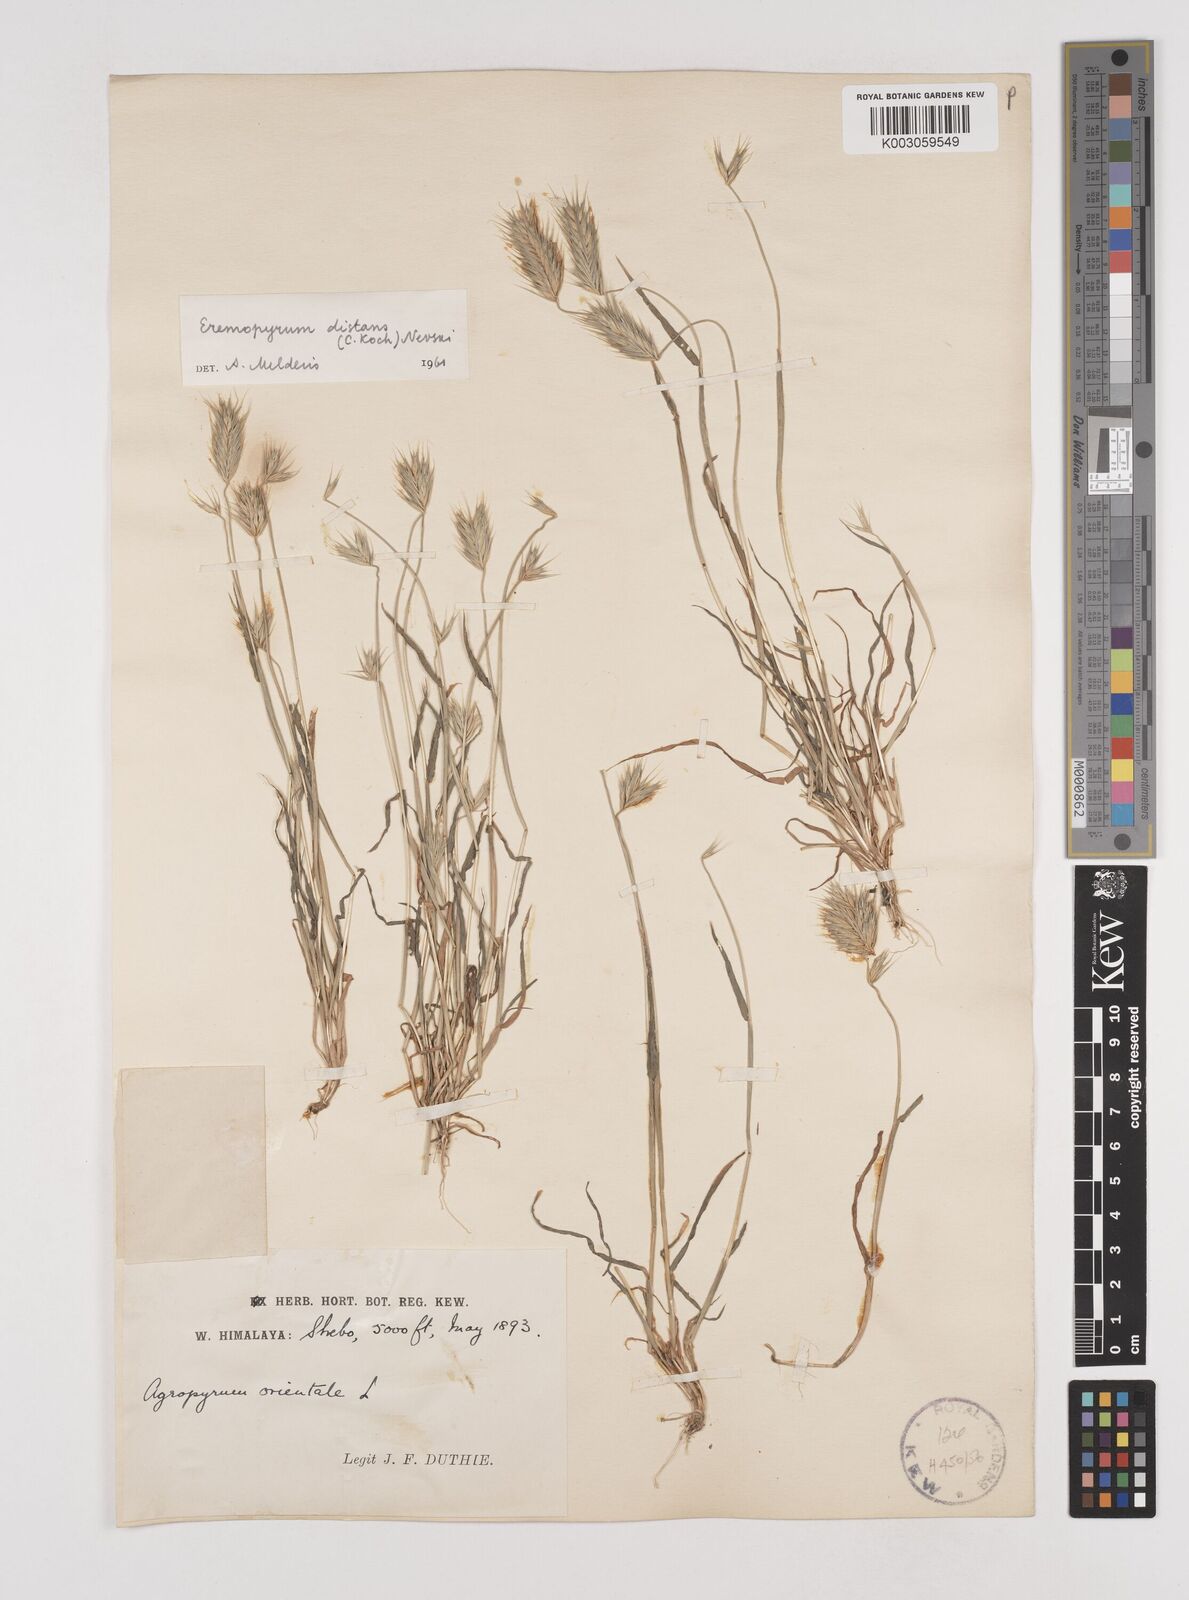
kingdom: Plantae
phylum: Tracheophyta
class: Liliopsida
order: Poales
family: Poaceae
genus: Eremopyrum
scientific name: Eremopyrum distans
